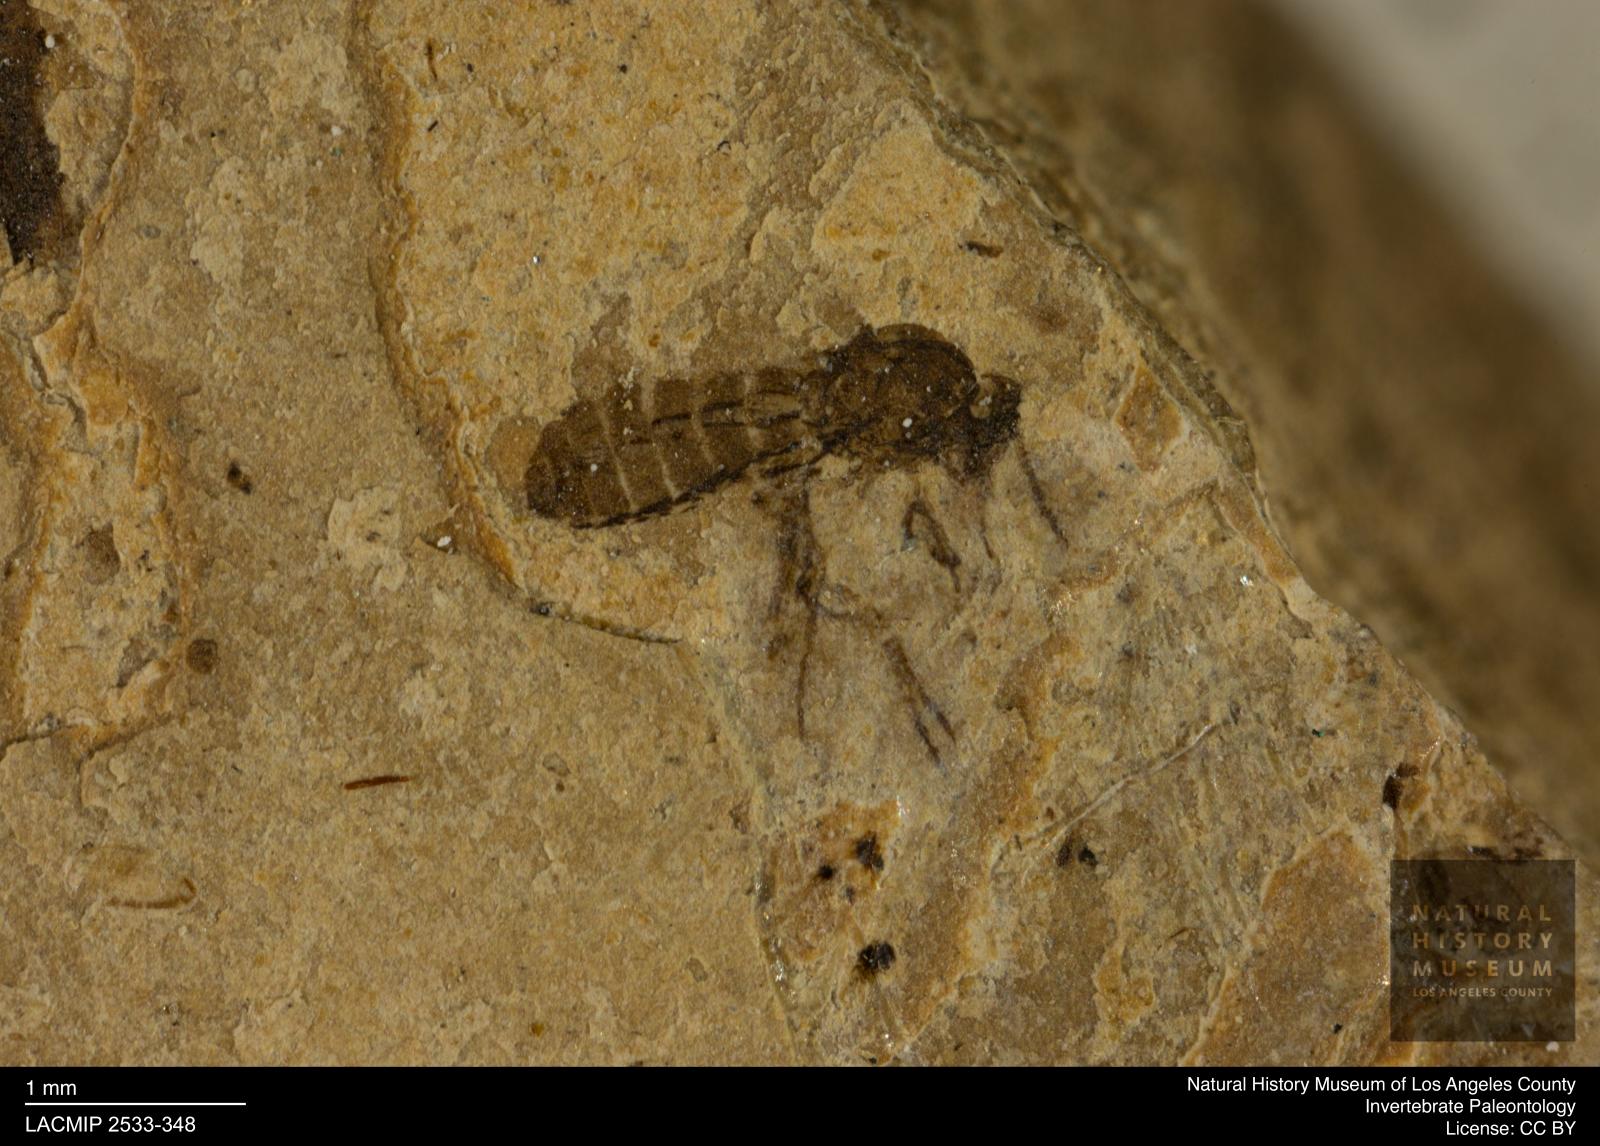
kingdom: Animalia
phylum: Arthropoda
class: Insecta
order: Diptera
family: Ceratopogonidae
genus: Culicoides
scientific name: Culicoides austerus
